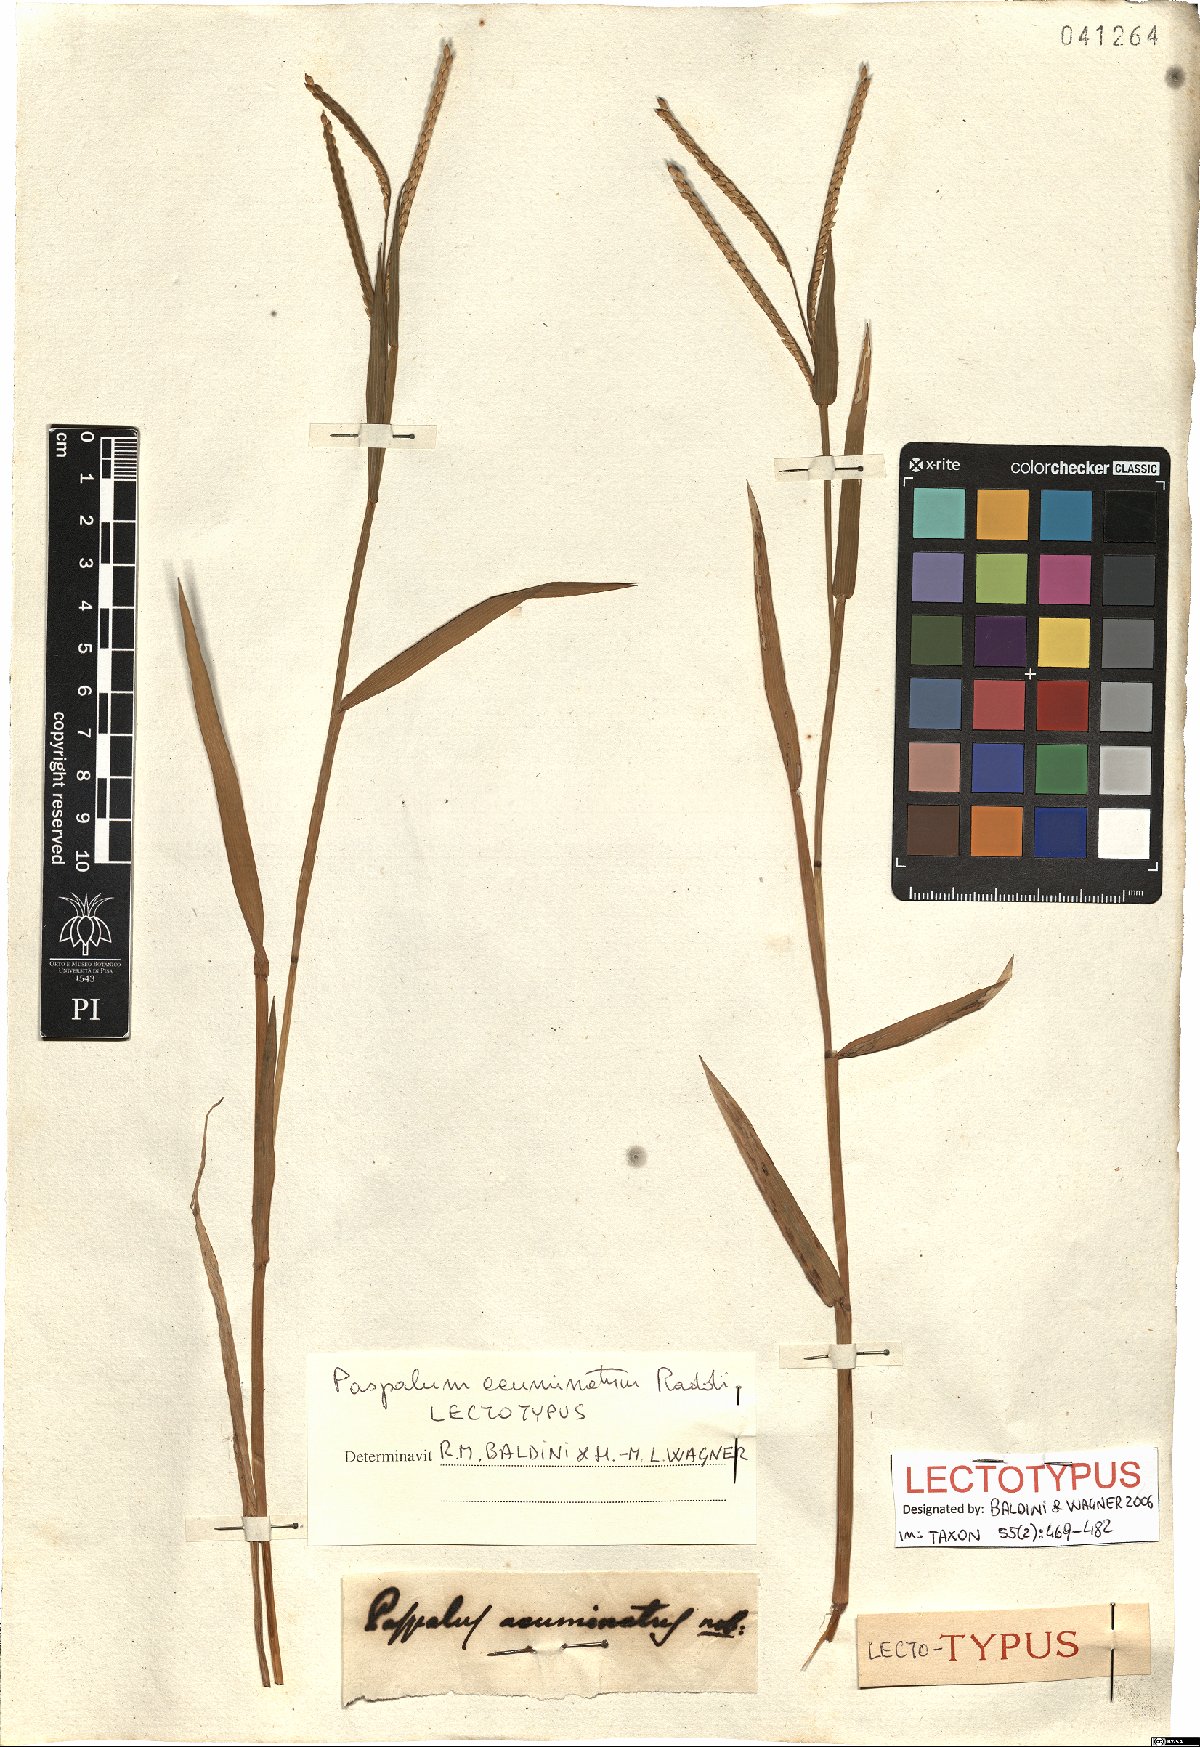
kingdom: Plantae
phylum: Tracheophyta
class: Liliopsida
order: Poales
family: Poaceae
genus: Paspalum
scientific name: Paspalum acuminatum
